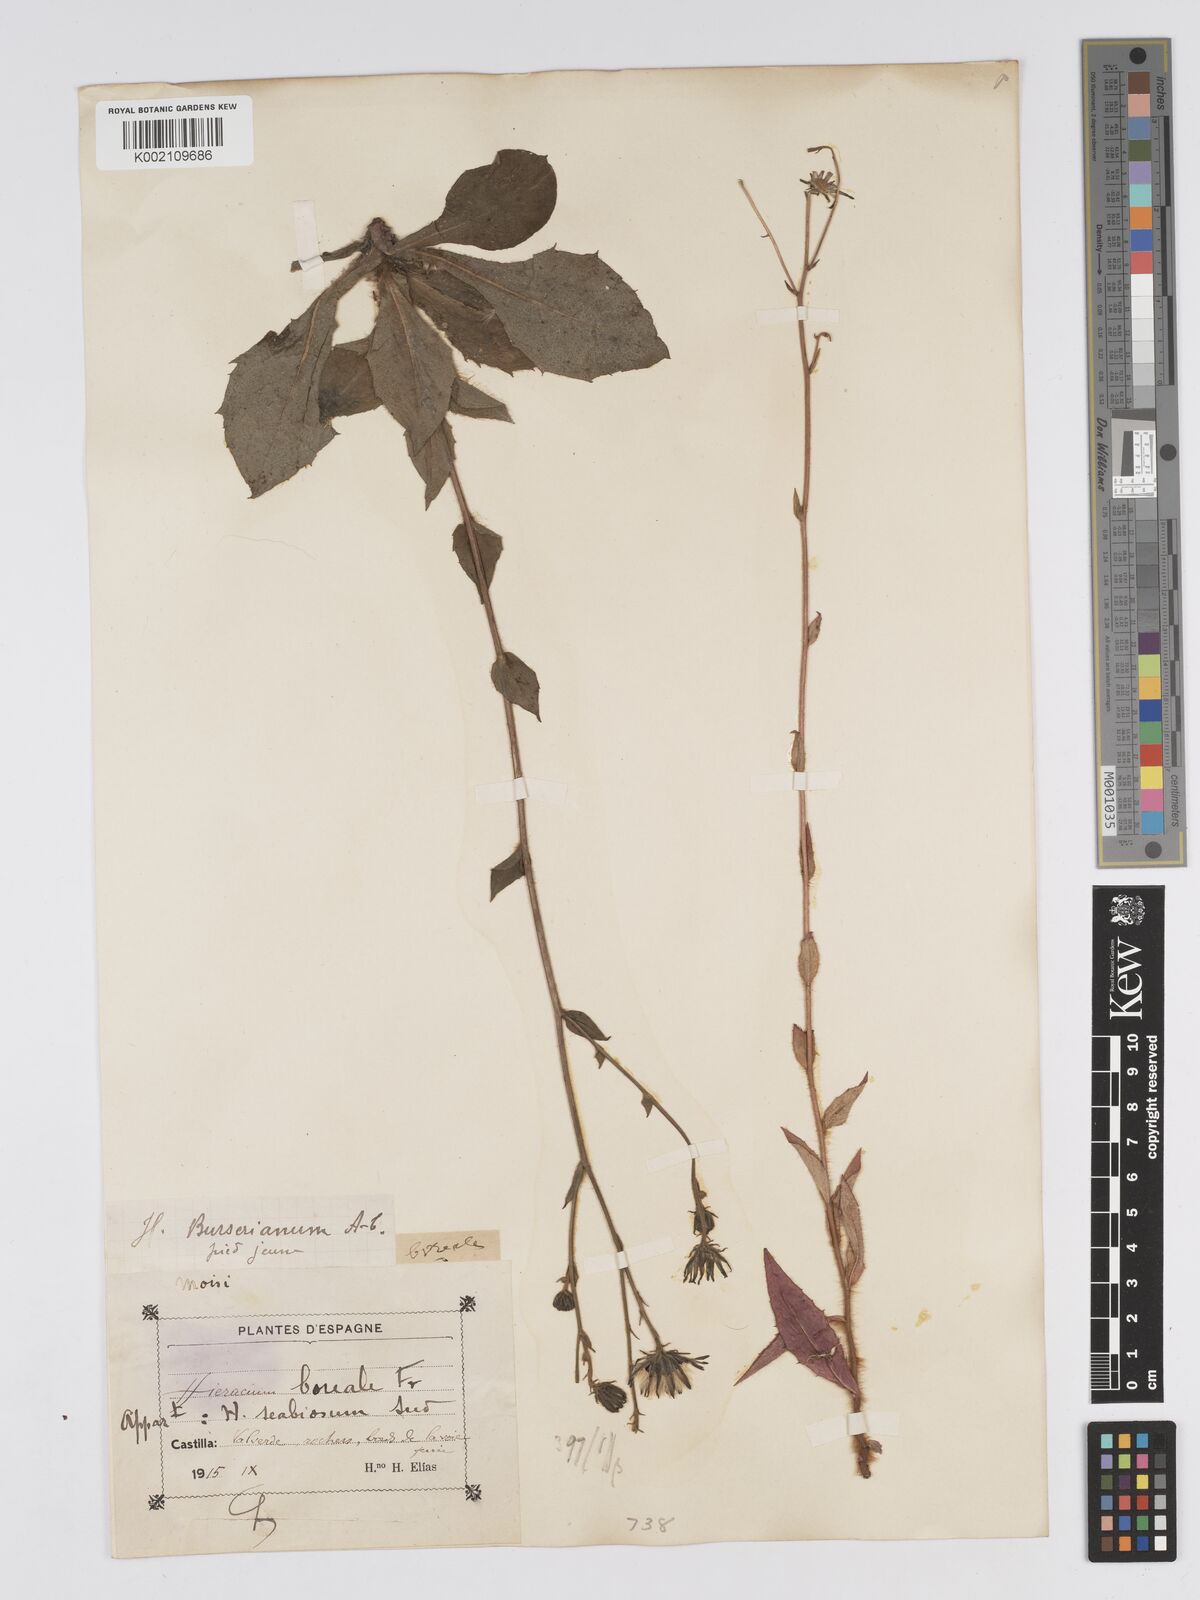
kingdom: Plantae
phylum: Tracheophyta
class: Magnoliopsida
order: Asterales
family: Asteraceae
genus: Hieracium
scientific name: Hieracium nobile
